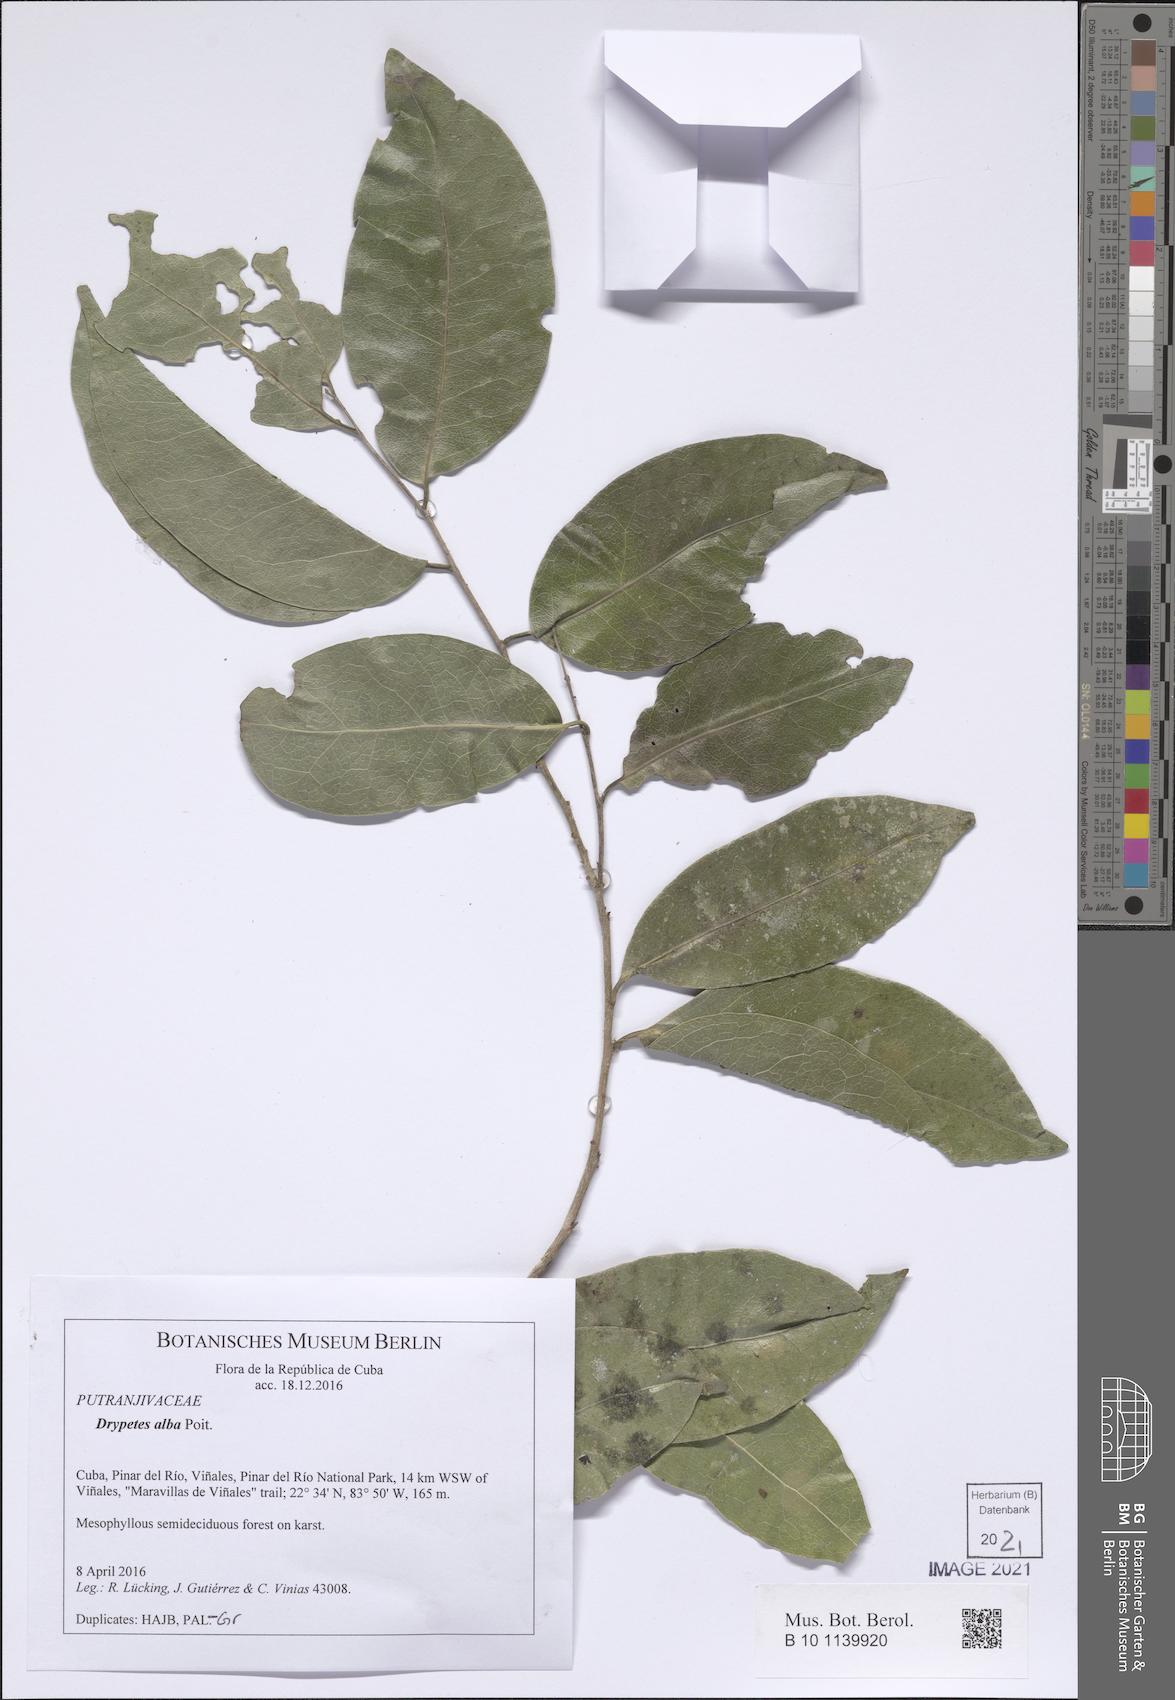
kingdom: Plantae
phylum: Tracheophyta
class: Magnoliopsida
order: Malpighiales
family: Putranjivaceae
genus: Drypetes
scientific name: Drypetes lateriflora
